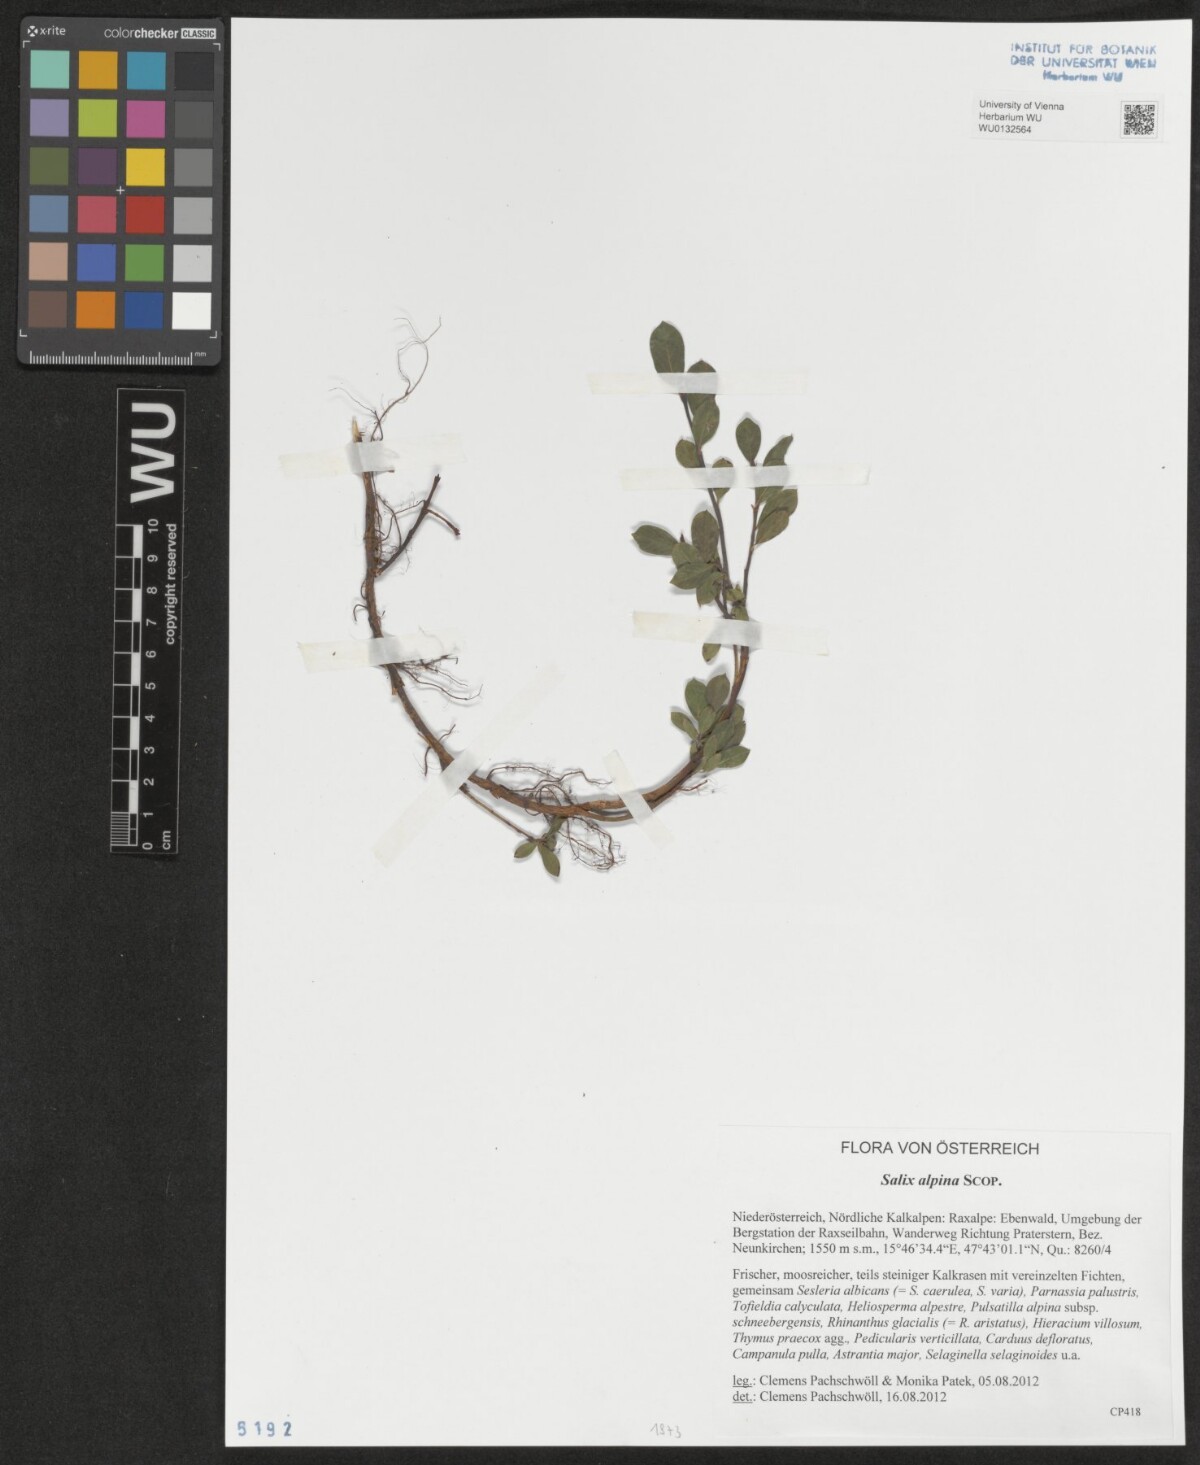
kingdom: Plantae
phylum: Tracheophyta
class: Magnoliopsida
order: Malpighiales
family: Salicaceae
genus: Salix
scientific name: Salix alpina
